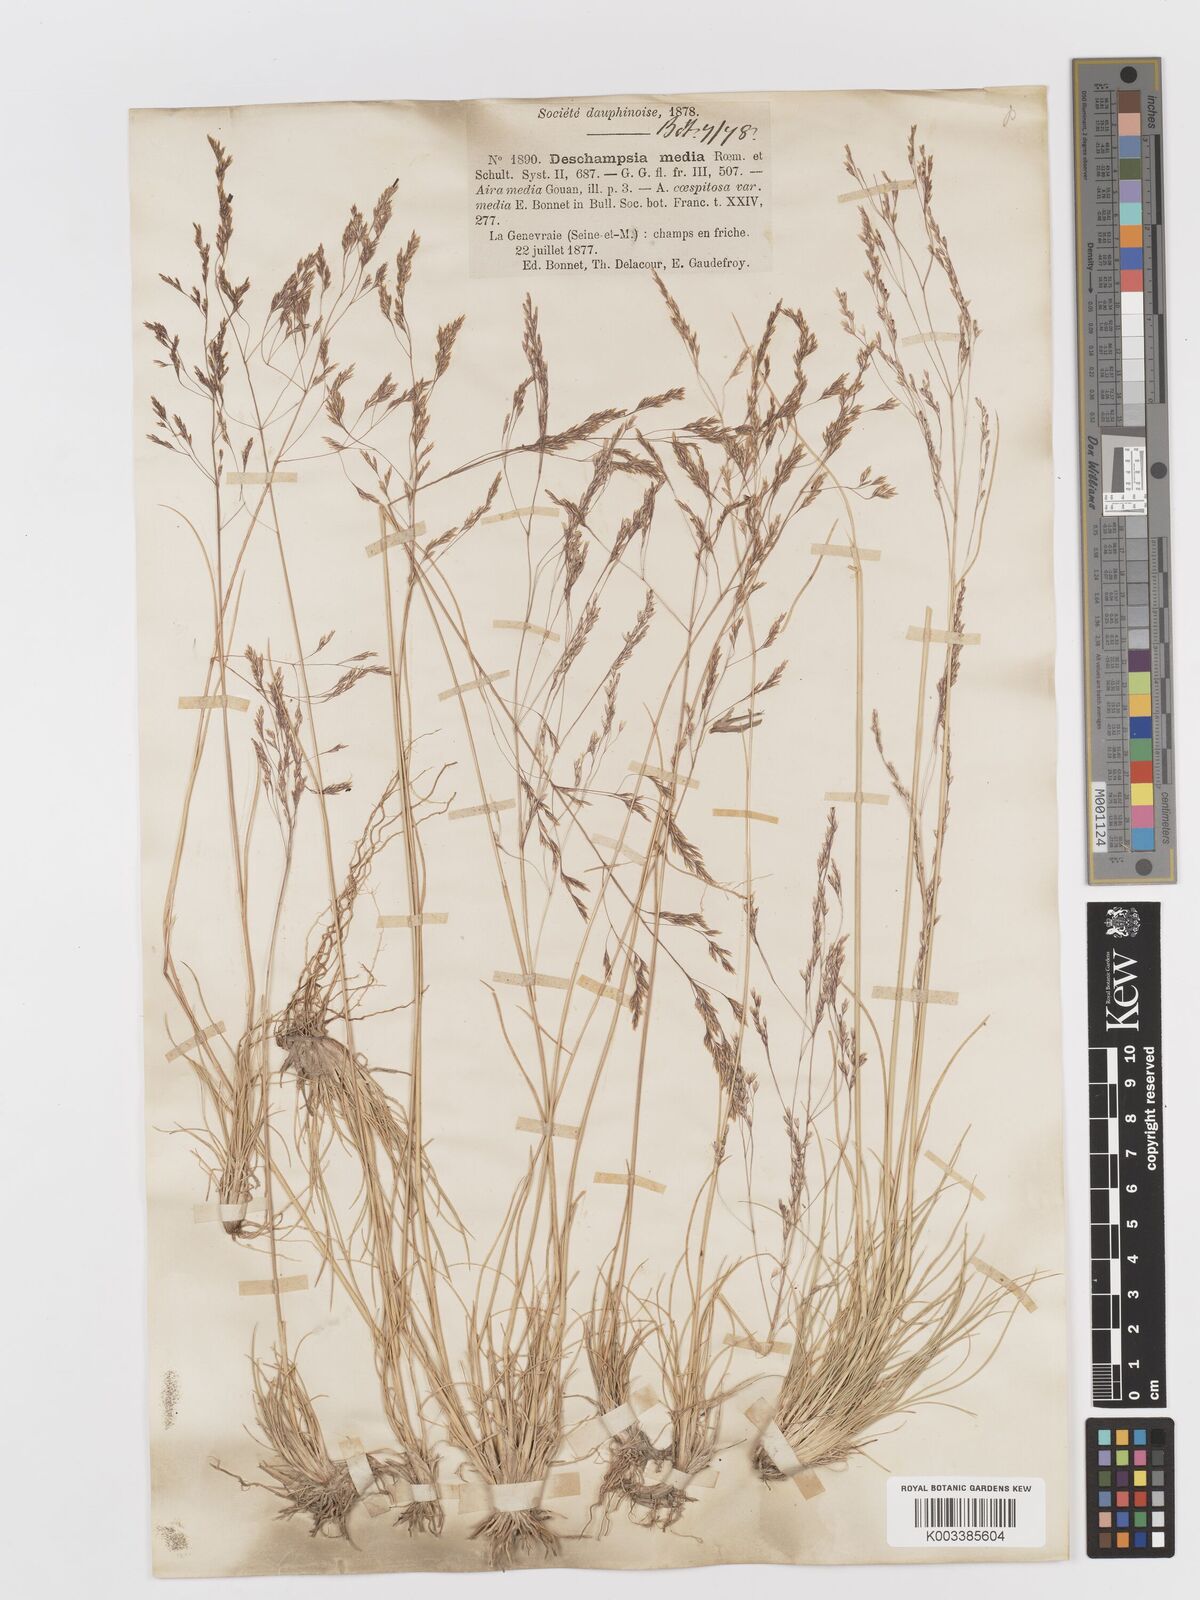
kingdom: Plantae
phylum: Tracheophyta
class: Liliopsida
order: Poales
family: Poaceae
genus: Deschampsia
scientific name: Deschampsia media
